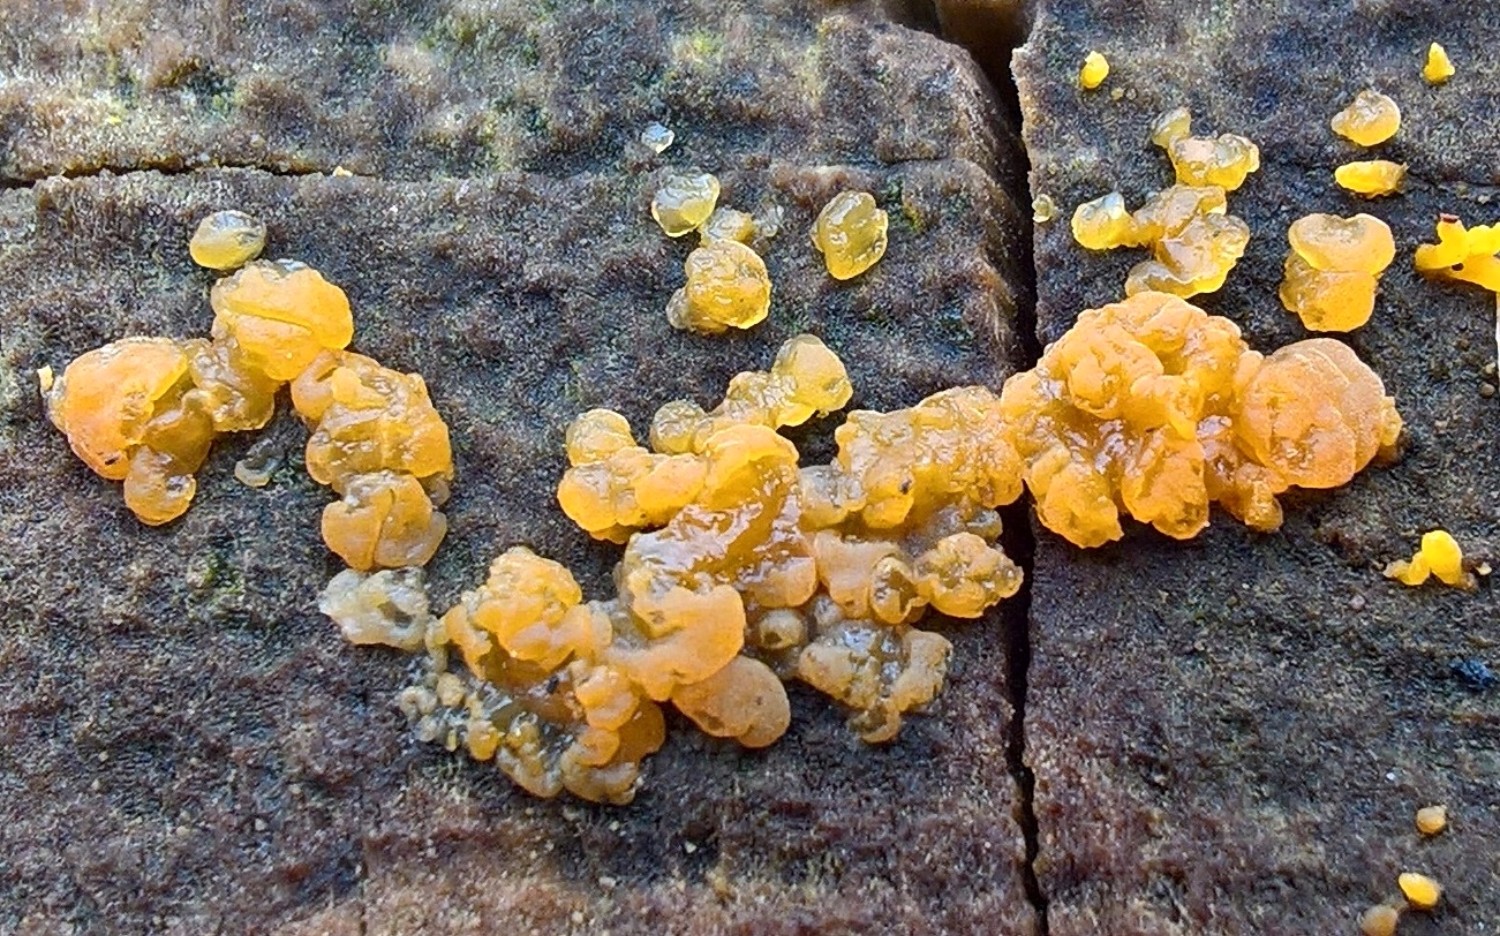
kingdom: Fungi
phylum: Basidiomycota
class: Dacrymycetes
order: Dacrymycetales
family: Dacrymycetaceae
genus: Dacrymyces
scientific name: Dacrymyces lacrymalis
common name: rynket tåresvamp
